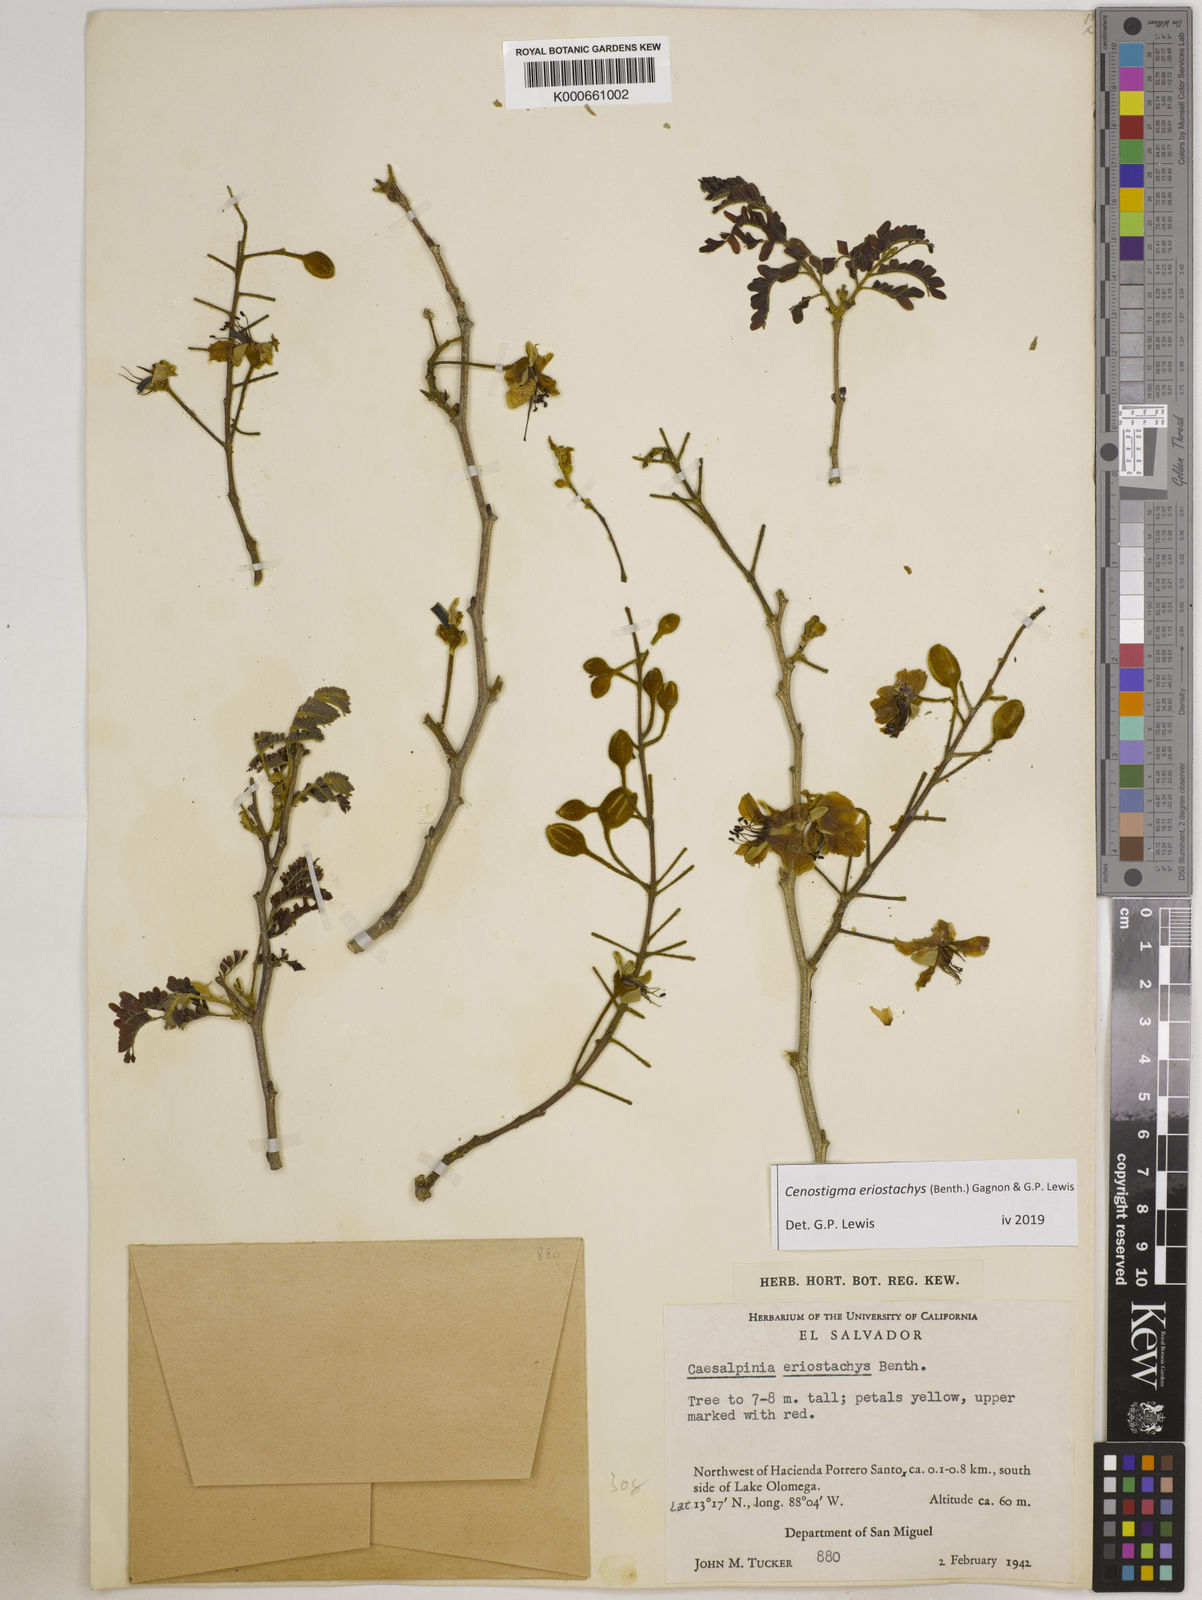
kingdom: Plantae
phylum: Tracheophyta
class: Magnoliopsida
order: Fabales
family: Fabaceae
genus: Cenostigma
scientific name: Cenostigma eriostachys
